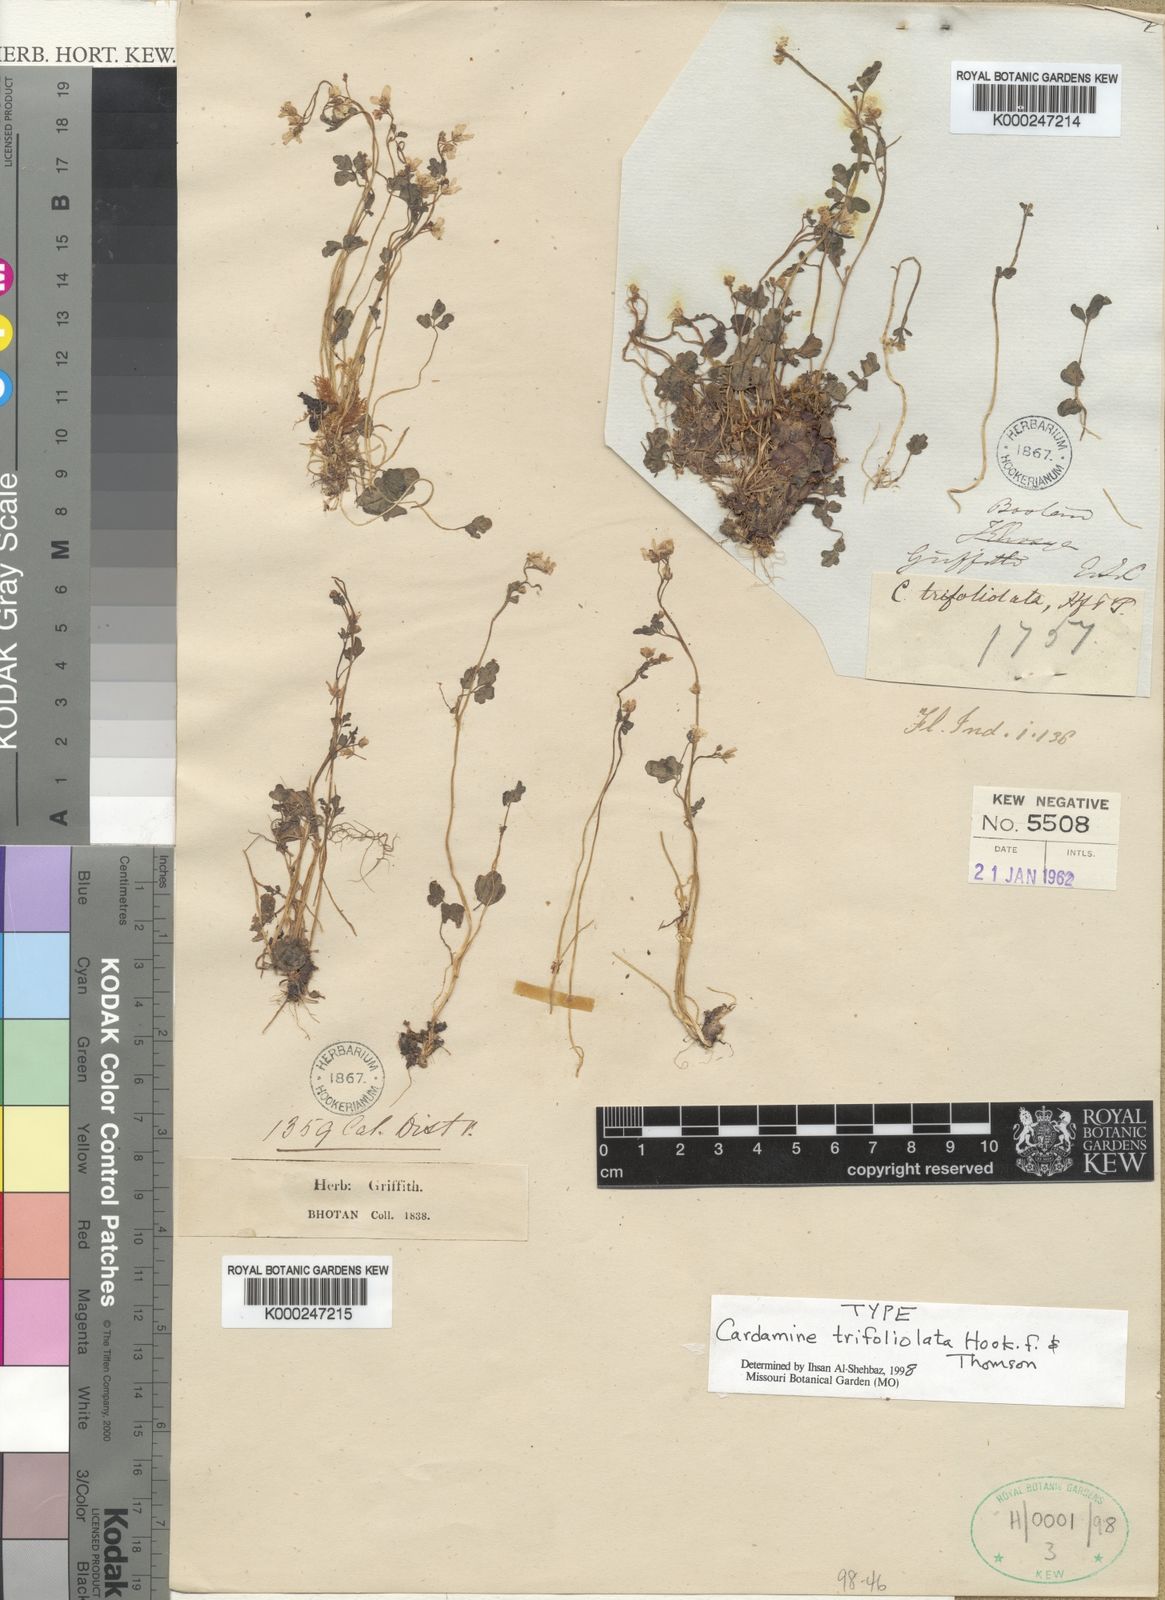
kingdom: Plantae
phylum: Tracheophyta
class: Magnoliopsida
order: Brassicales
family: Brassicaceae
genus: Cardamine
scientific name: Cardamine trifoliolata
